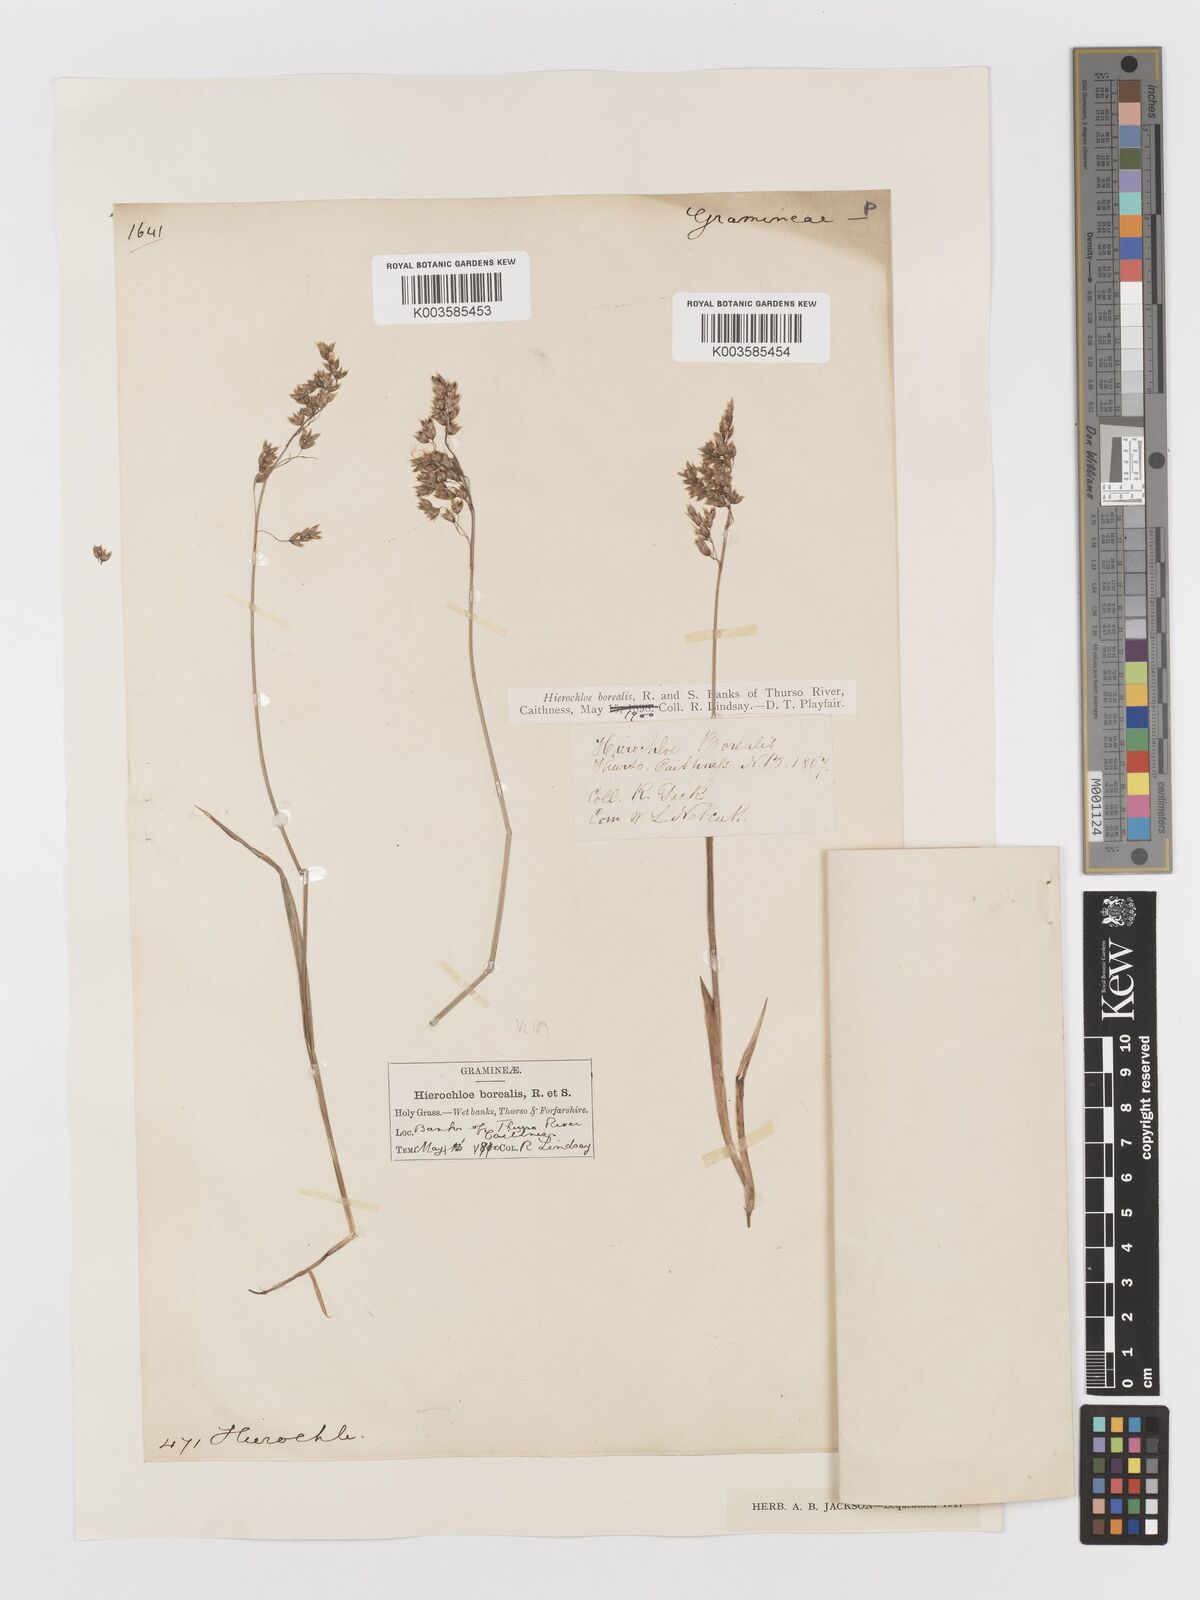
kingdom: Plantae
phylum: Tracheophyta
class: Liliopsida
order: Poales
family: Poaceae
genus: Anthoxanthum
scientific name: Anthoxanthum nitens
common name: Holy grass
